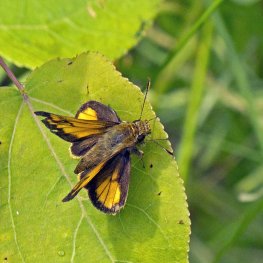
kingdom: Animalia
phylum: Arthropoda
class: Insecta
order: Lepidoptera
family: Hesperiidae
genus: Lon
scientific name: Lon hobomok
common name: Hobomok Skipper
